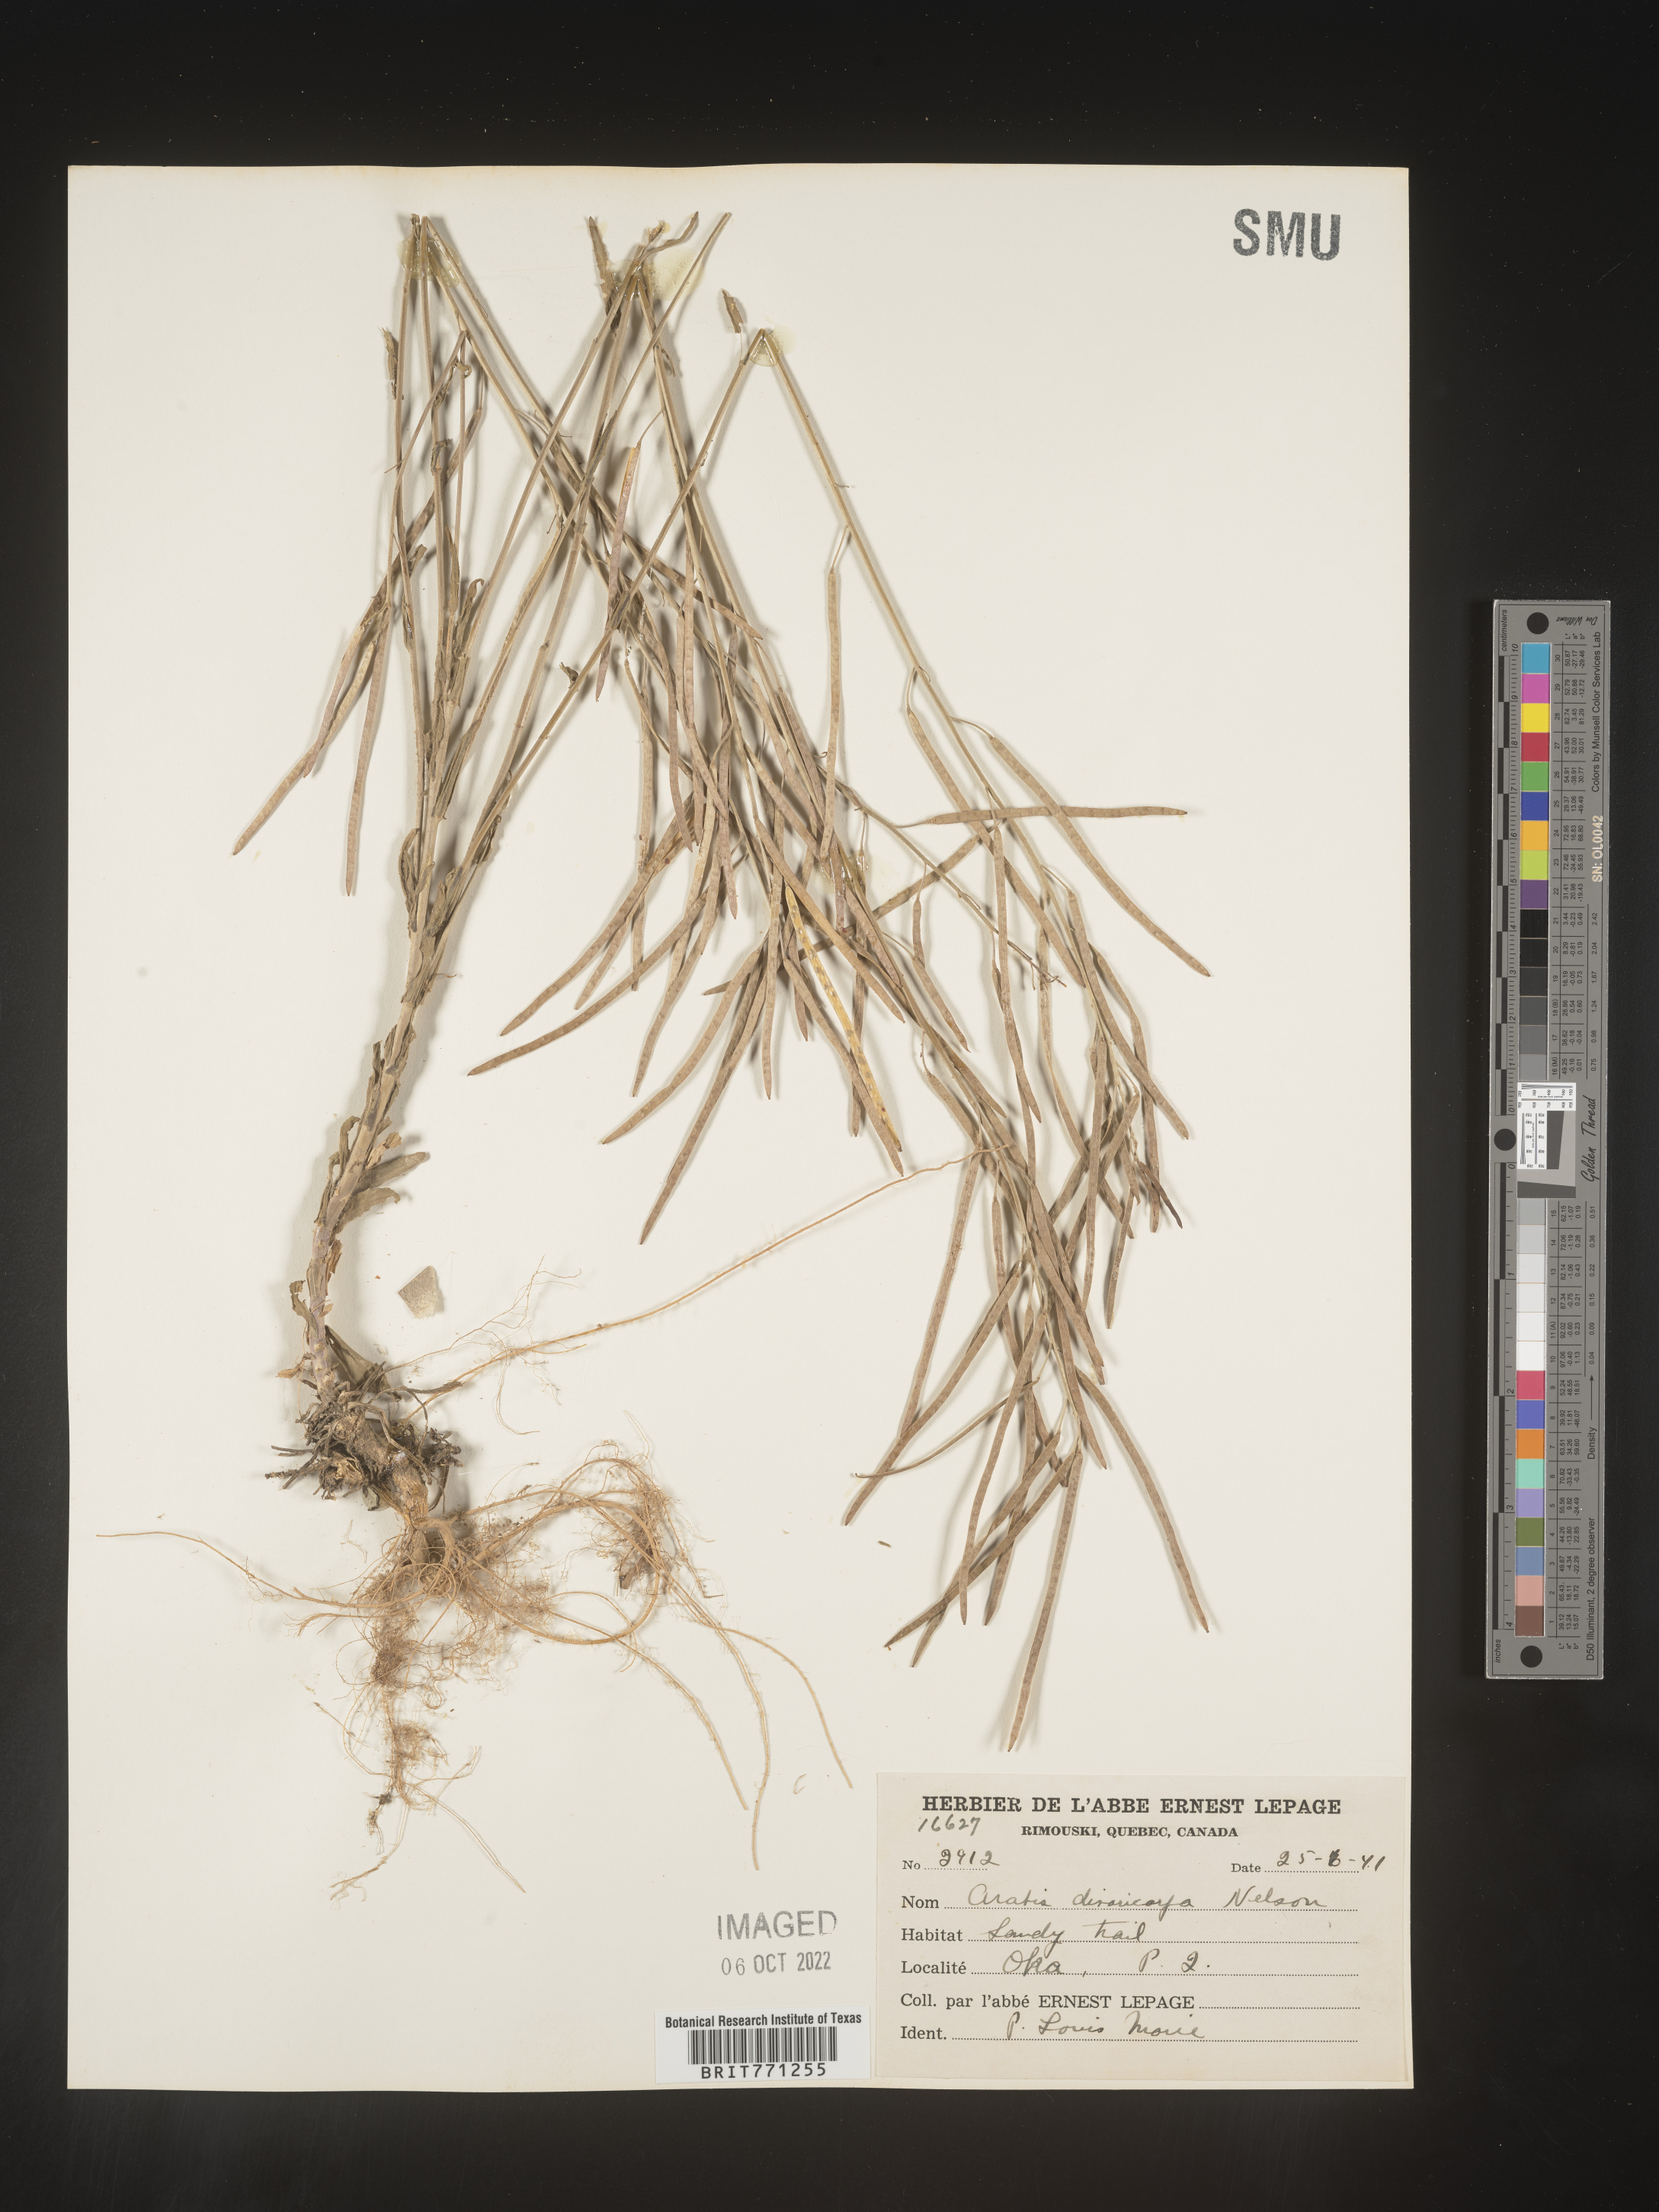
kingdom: Plantae
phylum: Tracheophyta
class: Magnoliopsida
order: Brassicales
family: Brassicaceae
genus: Boechera
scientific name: Boechera divaricarpa
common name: Divaricate rockcress
